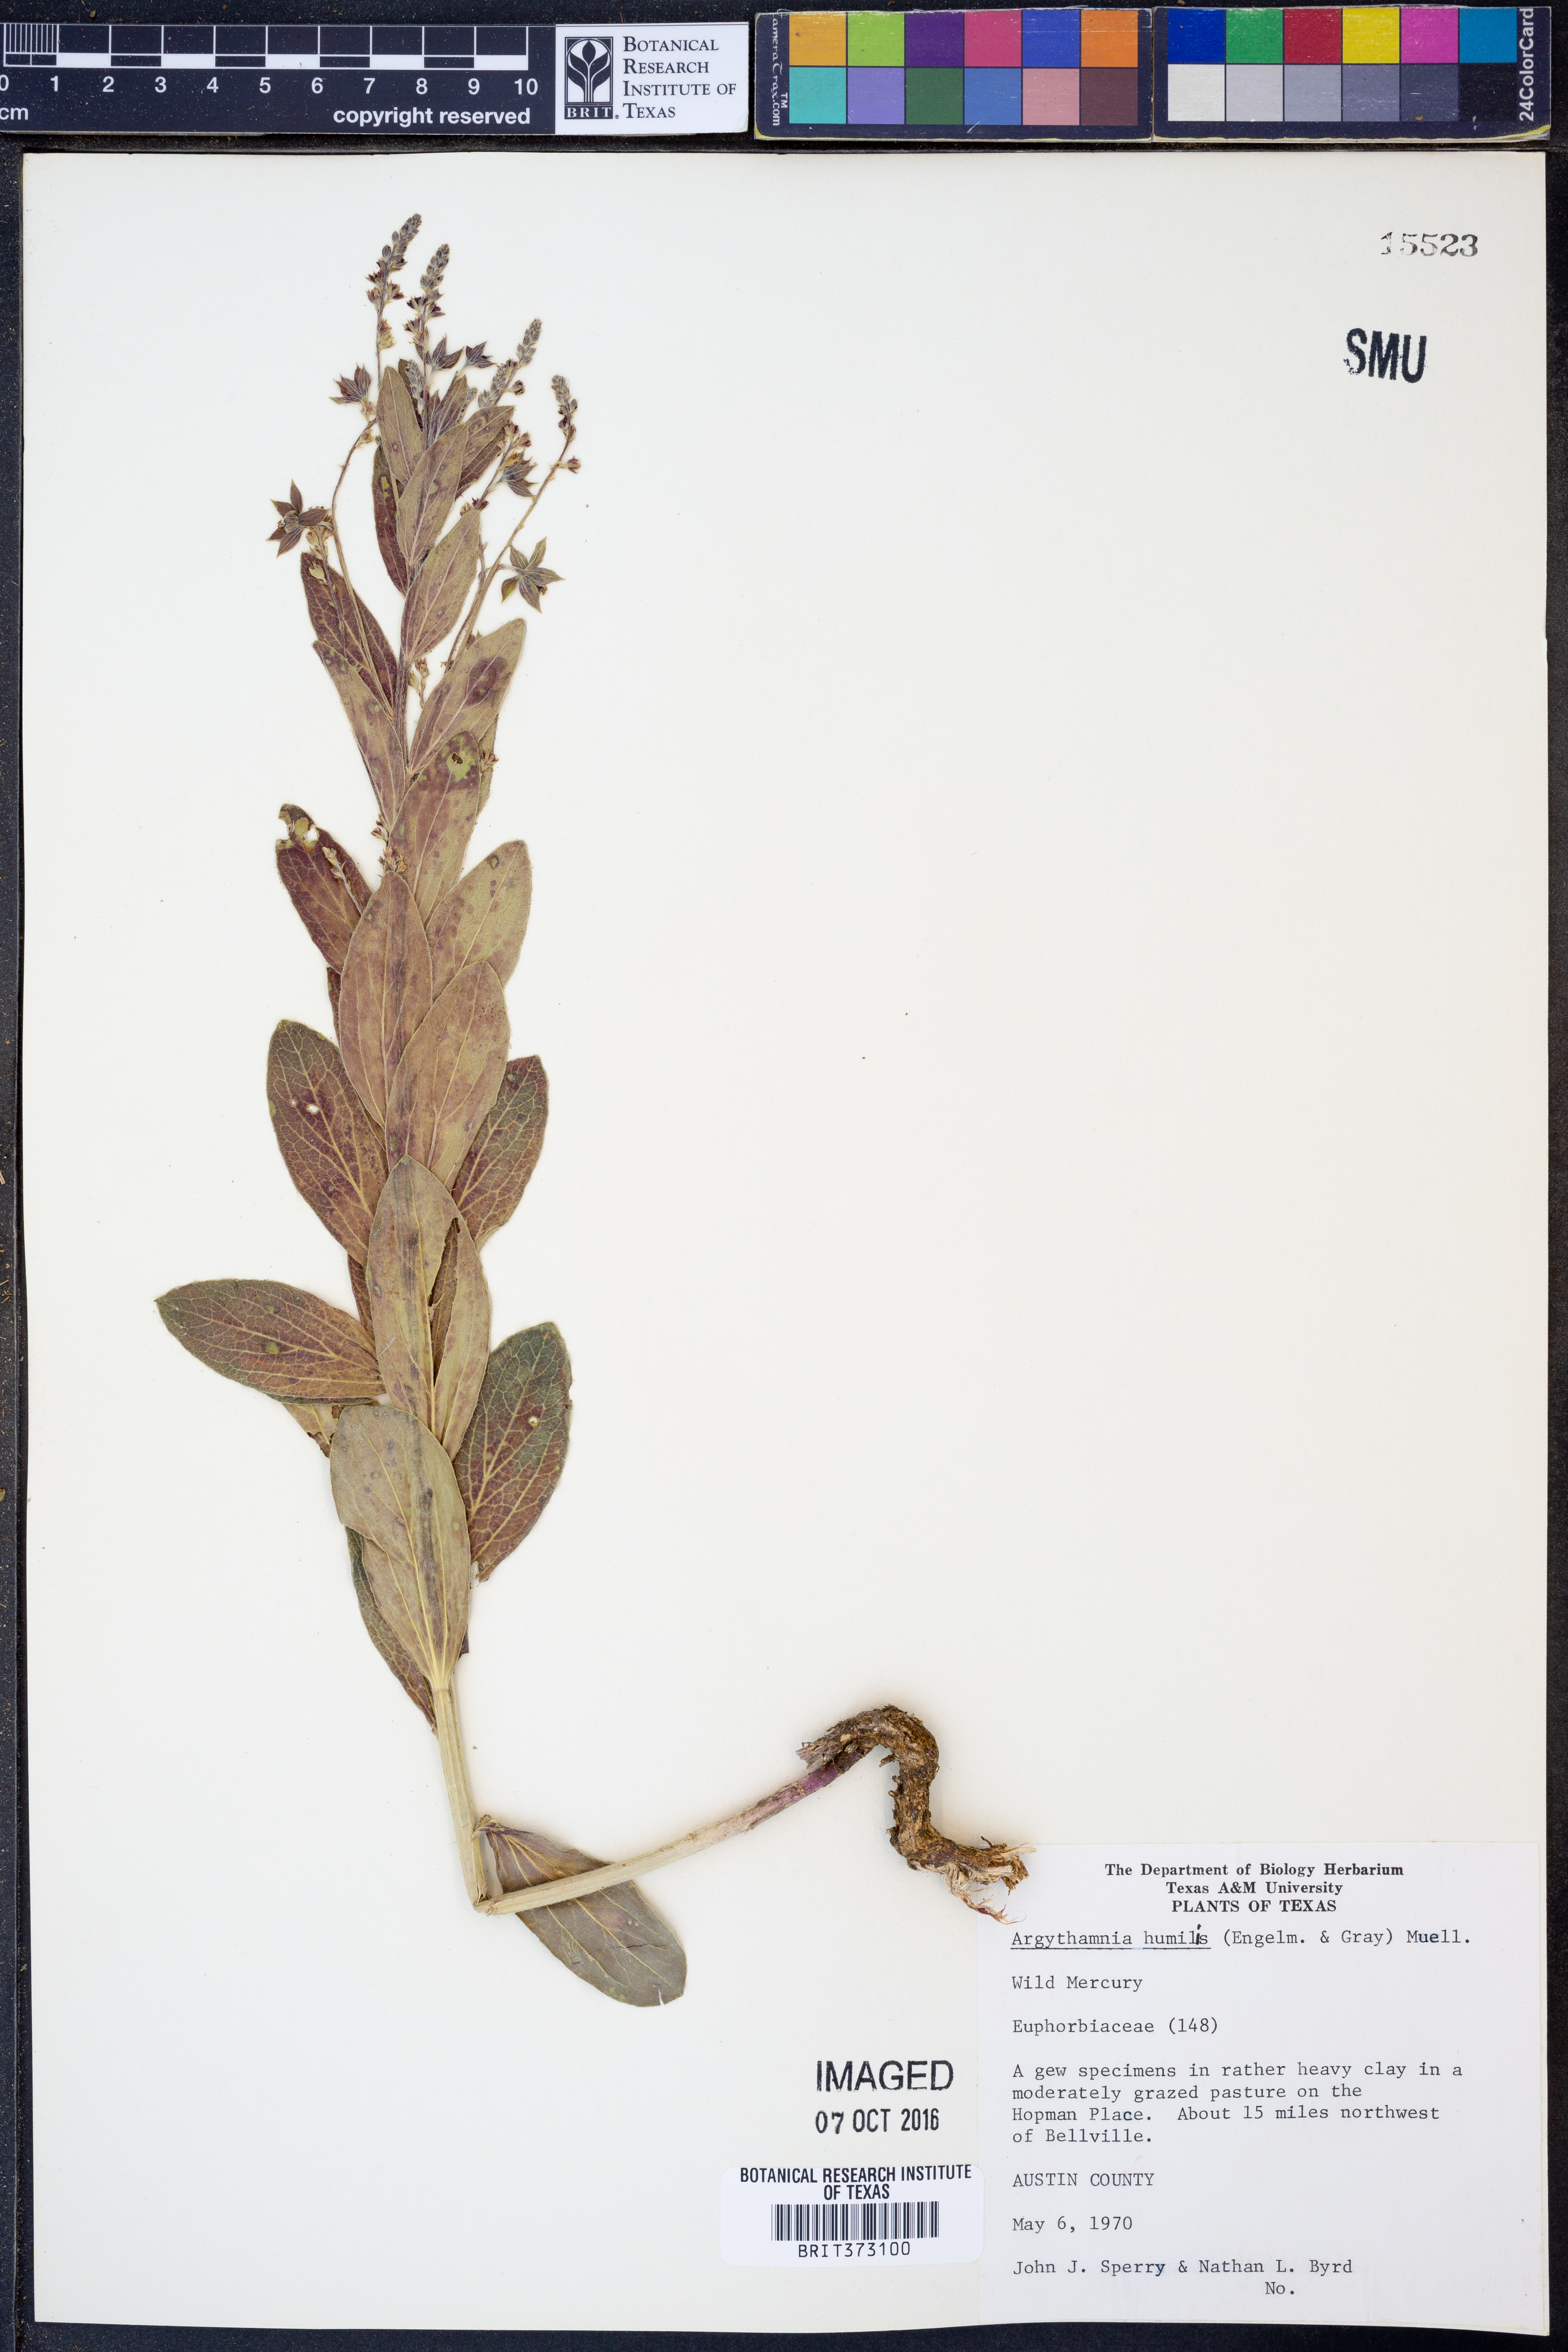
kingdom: Plantae
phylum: Tracheophyta
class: Magnoliopsida
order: Malpighiales
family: Euphorbiaceae
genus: Ditaxis
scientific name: Ditaxis humilis
